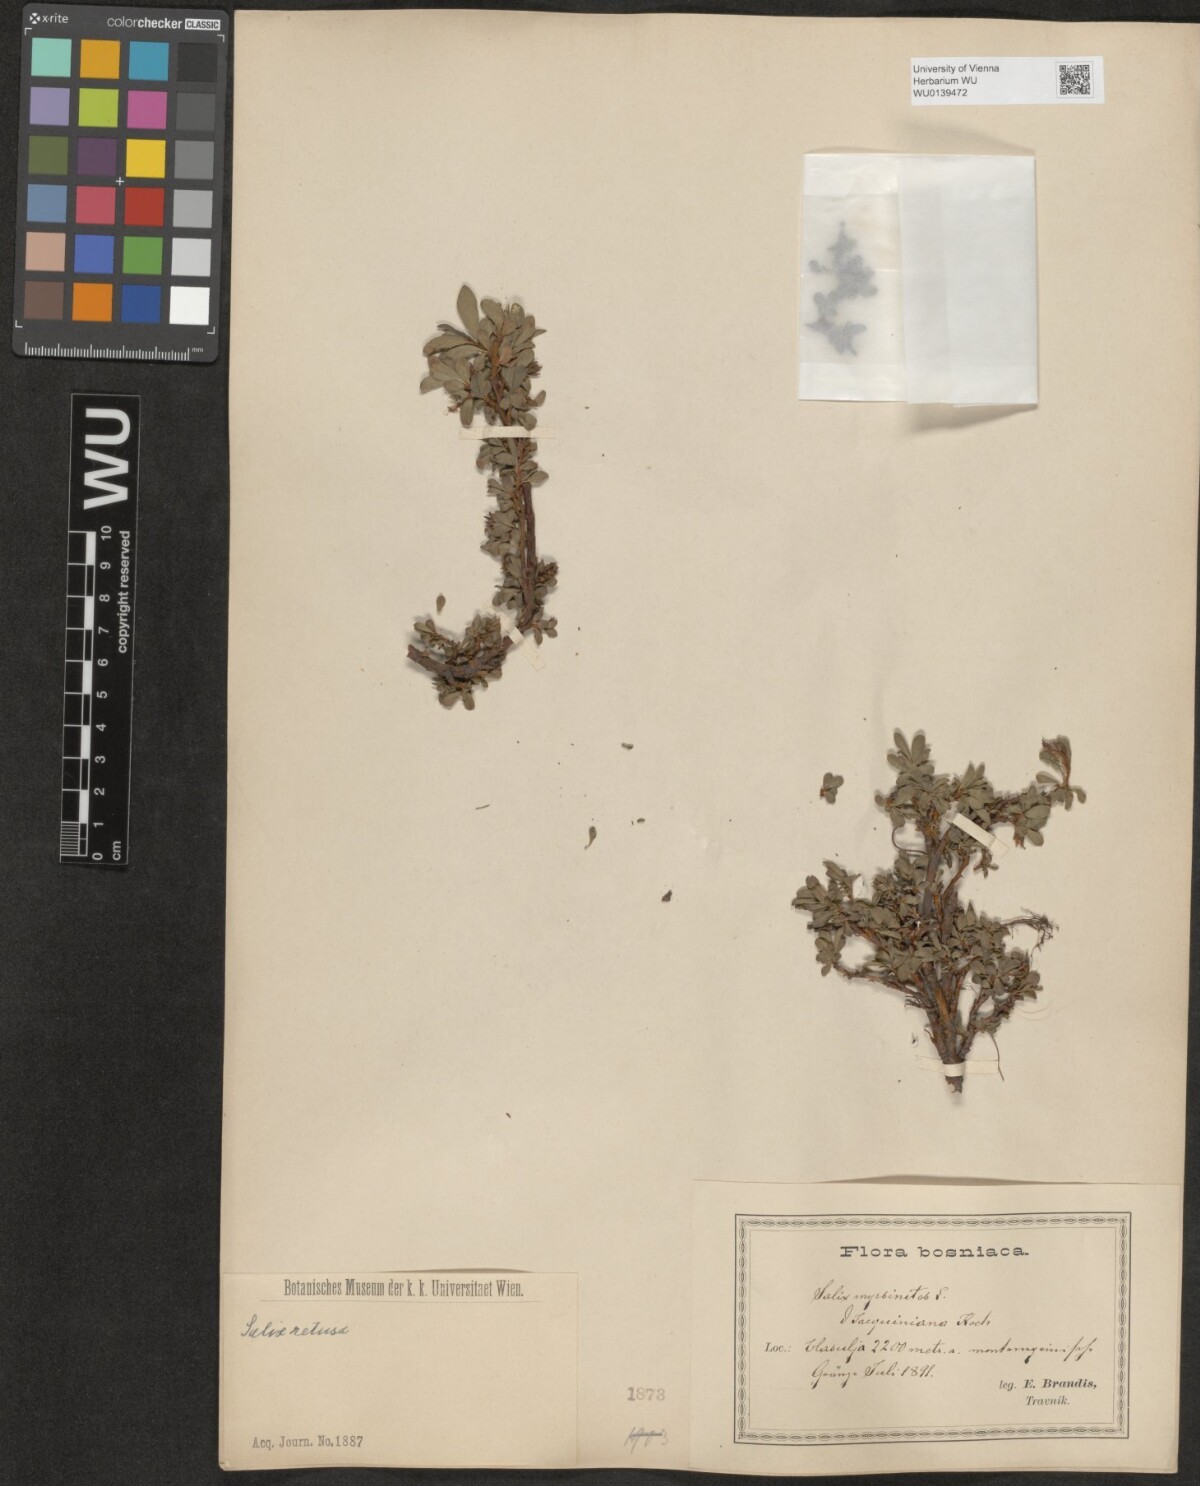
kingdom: Plantae
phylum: Tracheophyta
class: Magnoliopsida
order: Malpighiales
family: Salicaceae
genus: Salix
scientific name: Salix retusa
